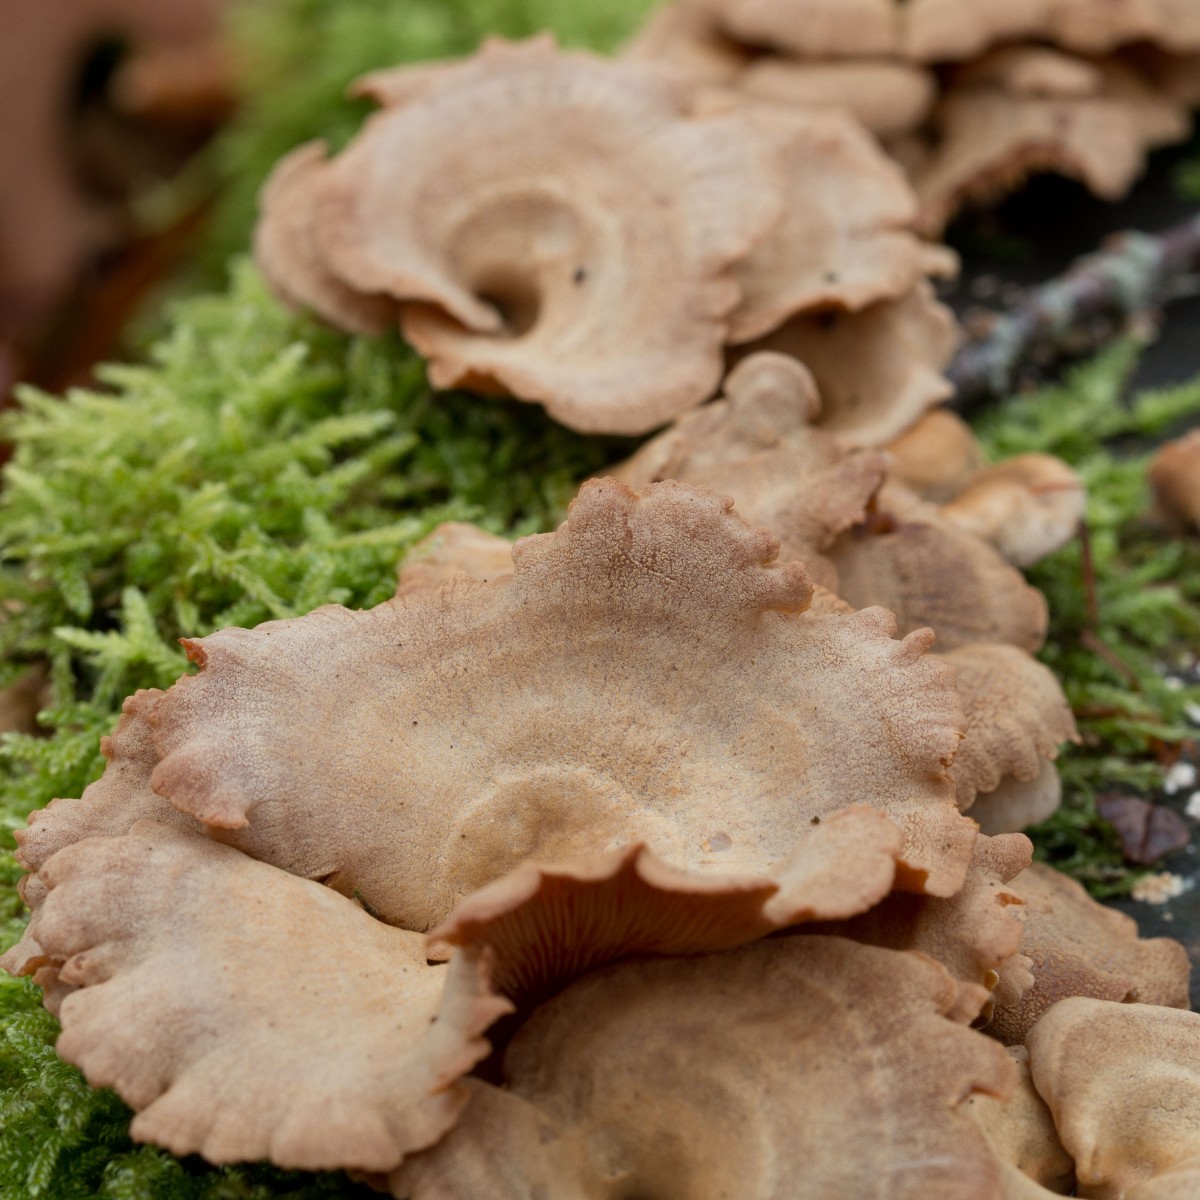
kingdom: Fungi
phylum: Basidiomycota
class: Agaricomycetes
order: Agaricales
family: Mycenaceae
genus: Panellus
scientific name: Panellus stipticus
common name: kliddet epaulethat
